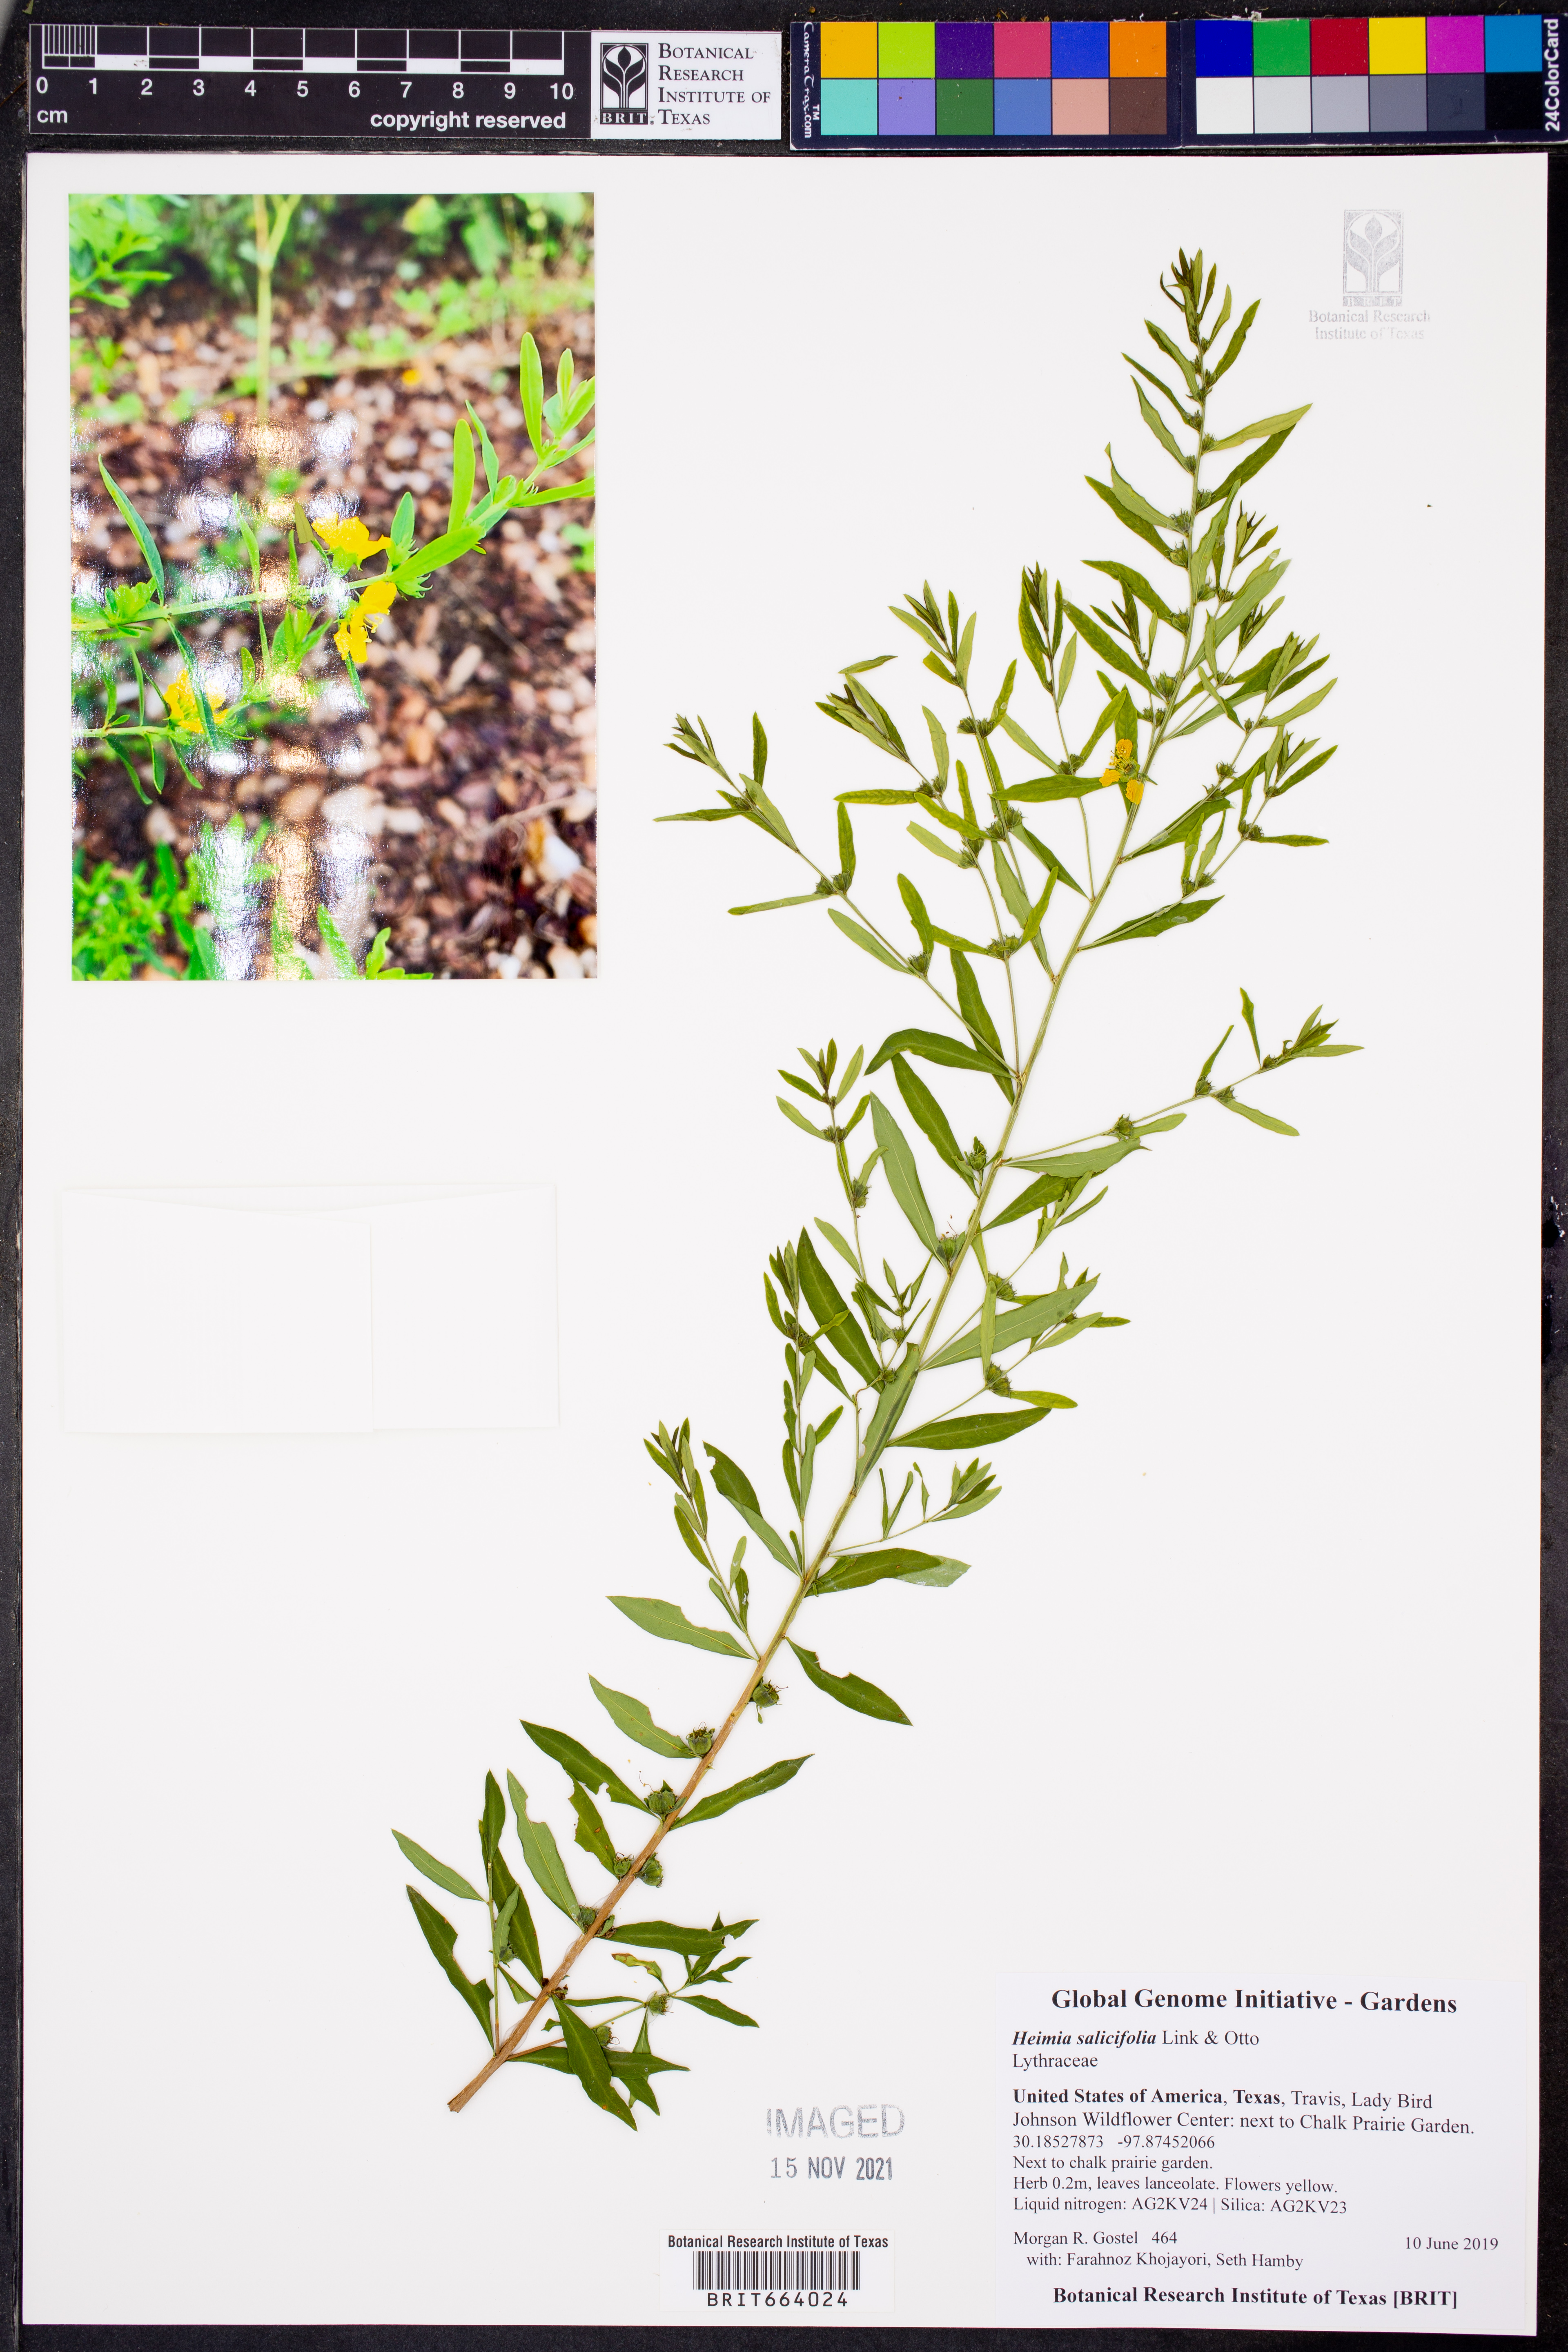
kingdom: Plantae
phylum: Tracheophyta
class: Magnoliopsida
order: Myrtales
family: Lythraceae
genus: Heimia
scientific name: Heimia salicifolia
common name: Willow-leaf heimia
